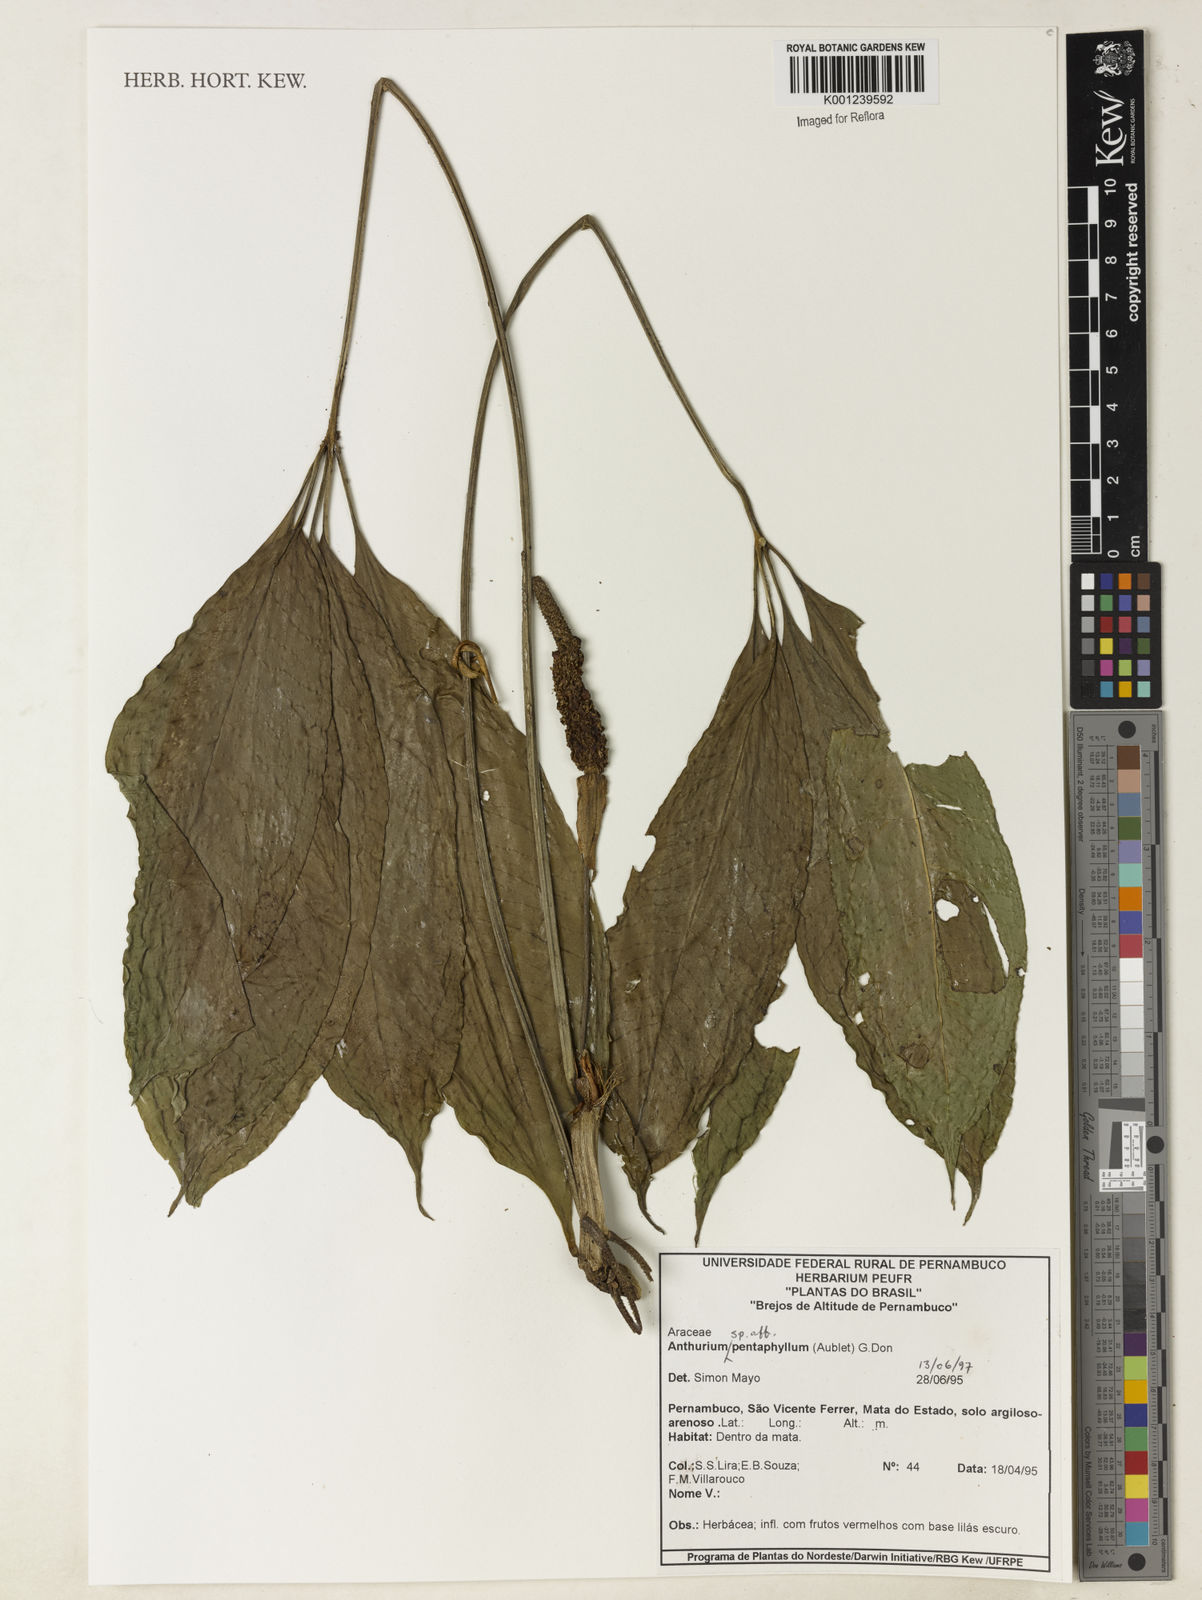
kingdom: Plantae
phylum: Tracheophyta
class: Liliopsida
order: Alismatales
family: Araceae
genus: Anthurium
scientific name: Anthurium pentaphyllum
